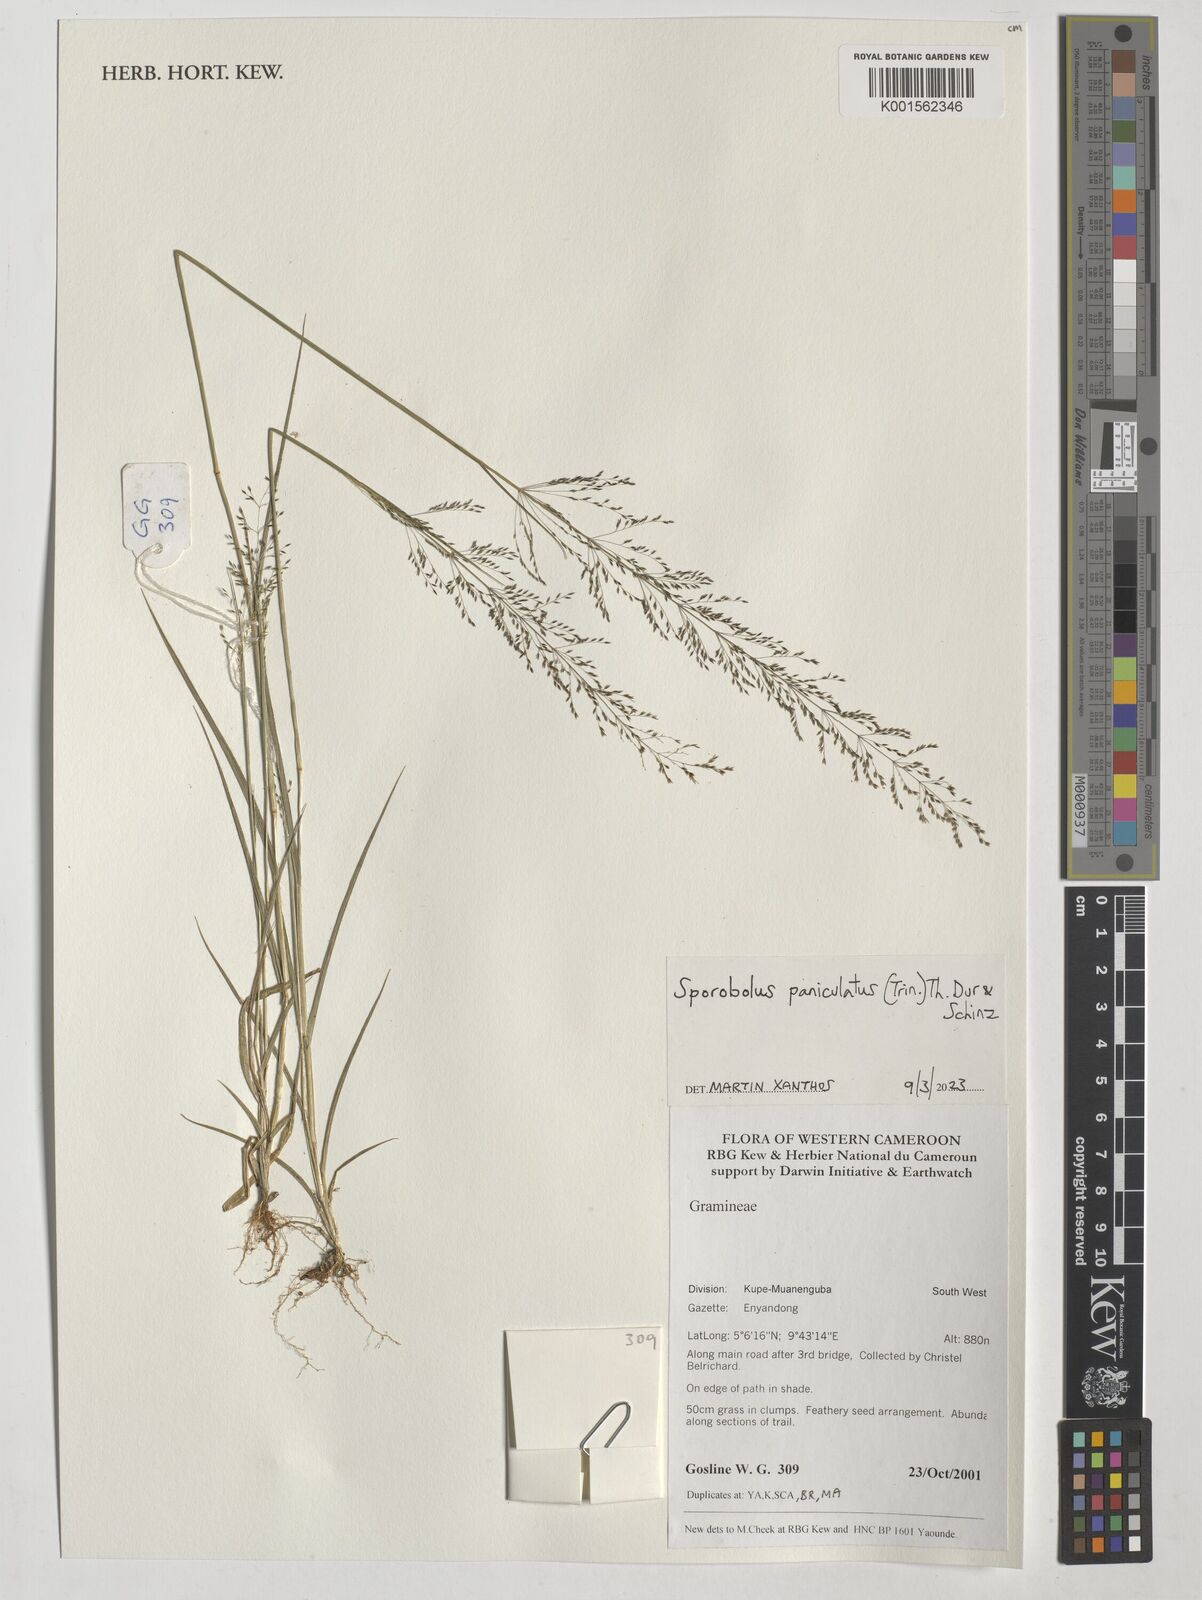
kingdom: Plantae
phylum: Tracheophyta
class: Liliopsida
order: Poales
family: Poaceae
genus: Sporobolus
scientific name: Sporobolus paniculatus
